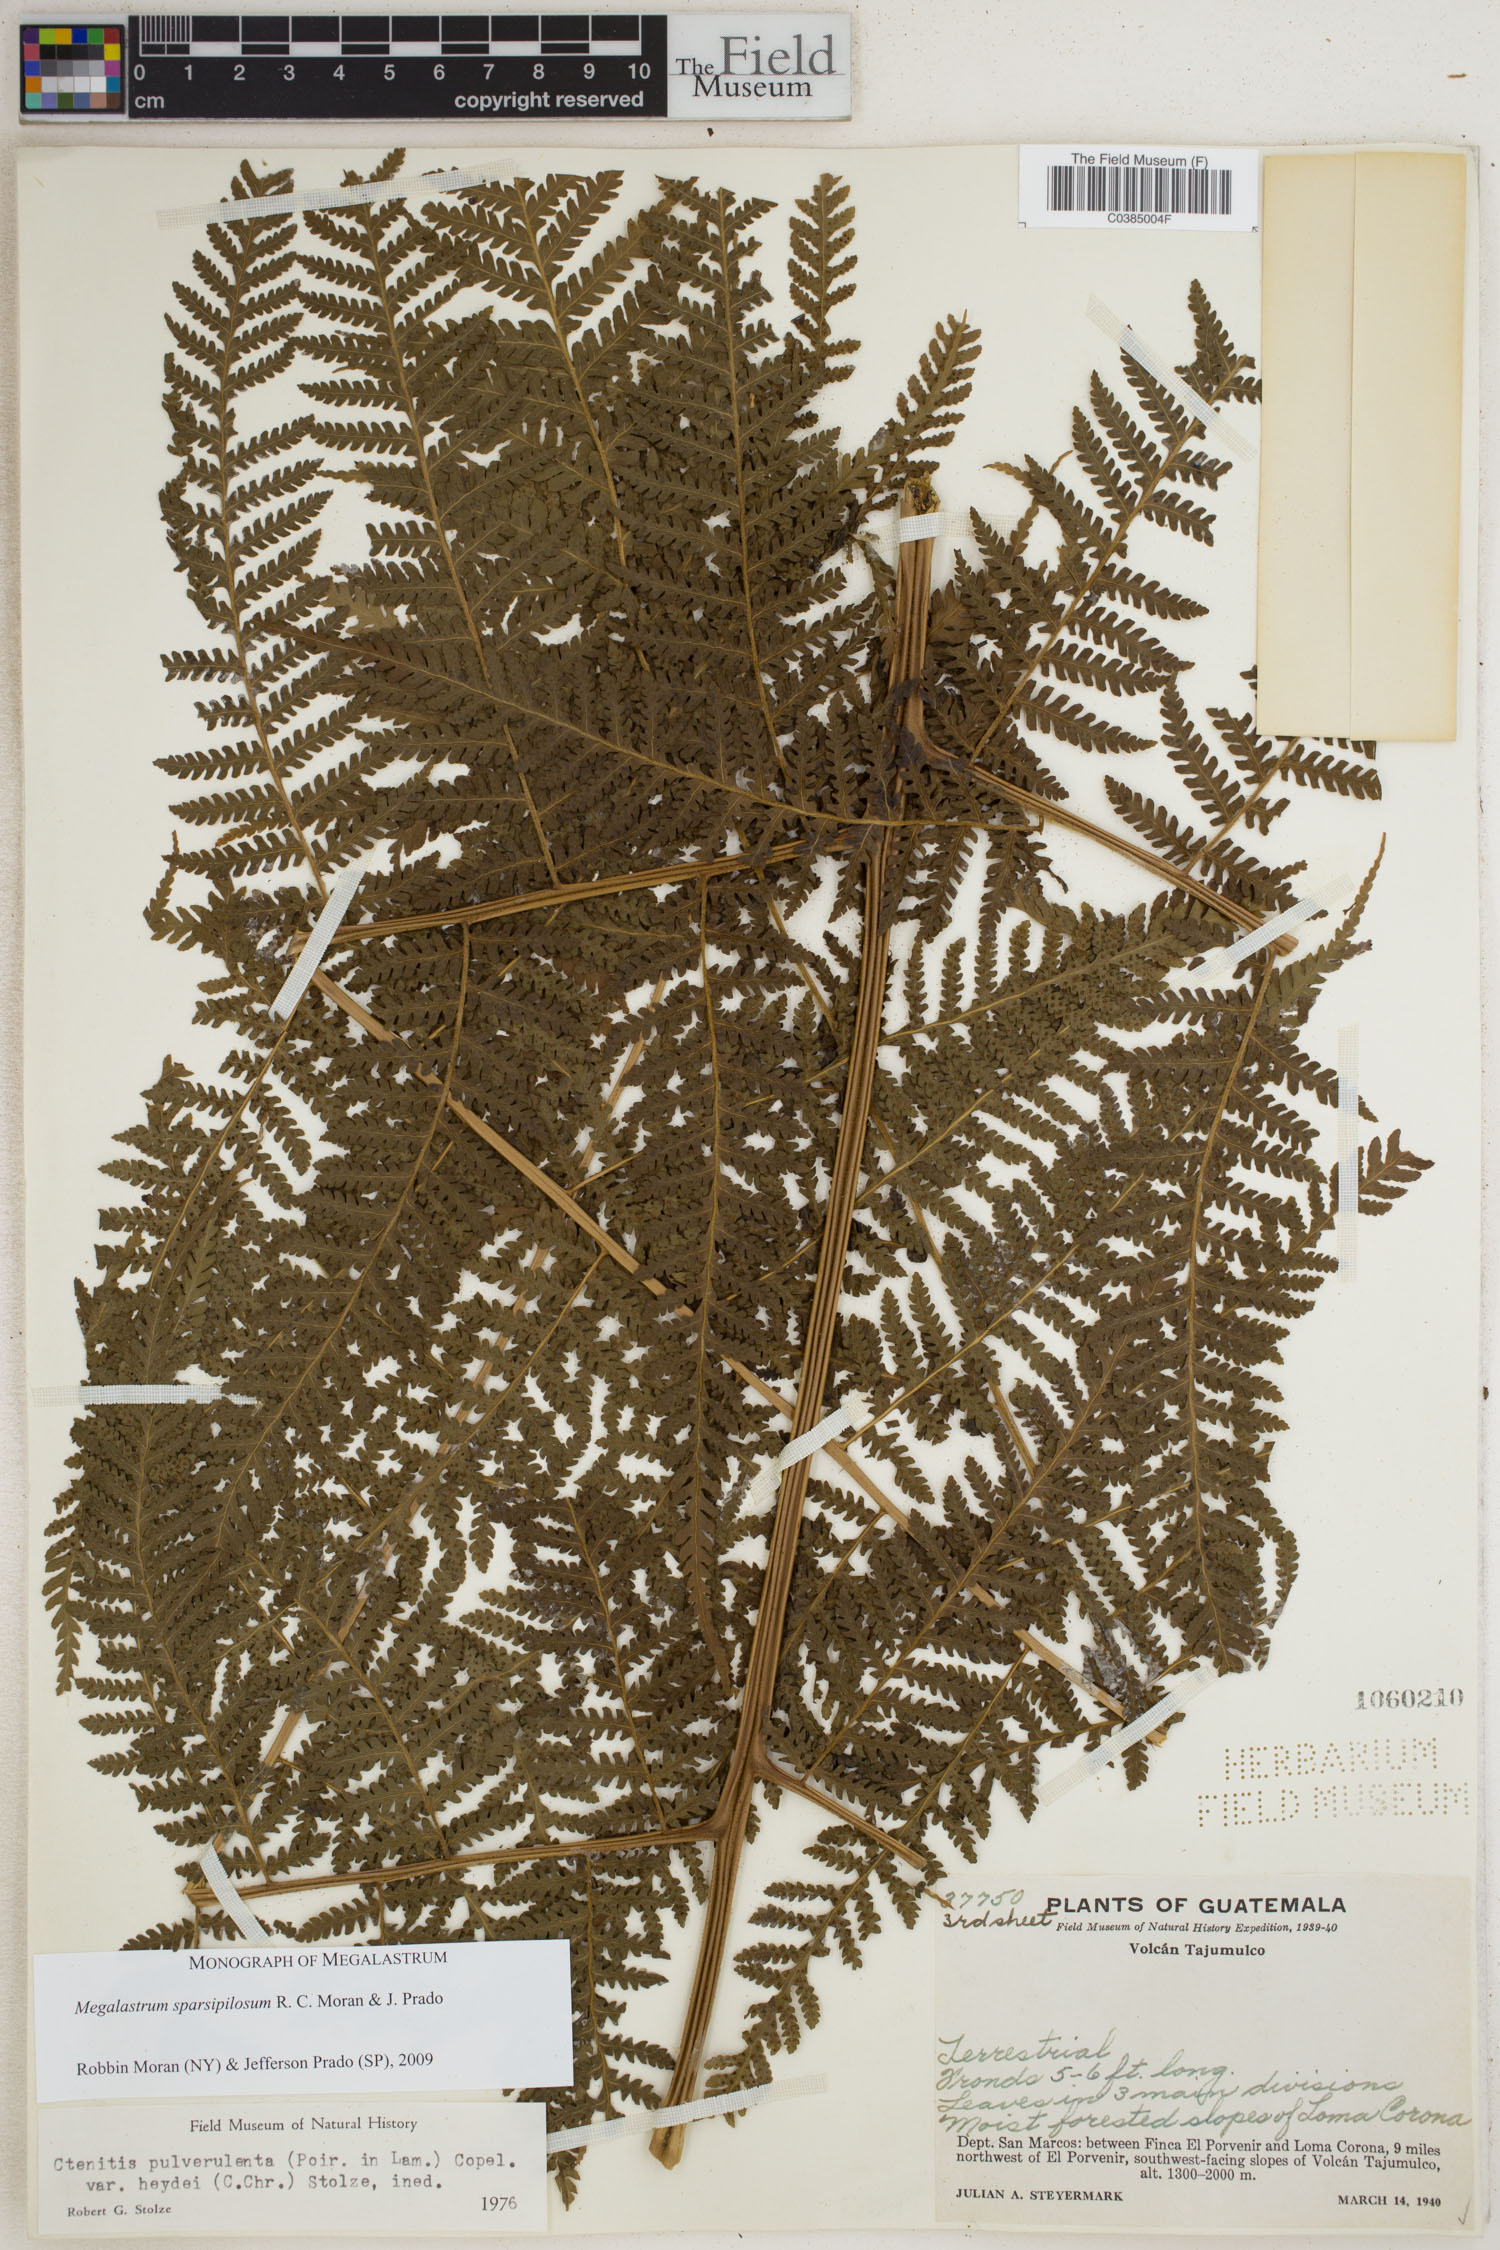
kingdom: Plantae
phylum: Tracheophyta
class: Polypodiopsida
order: Polypodiales
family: Dryopteridaceae
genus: Megalastrum
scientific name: Megalastrum sparsipilosum
